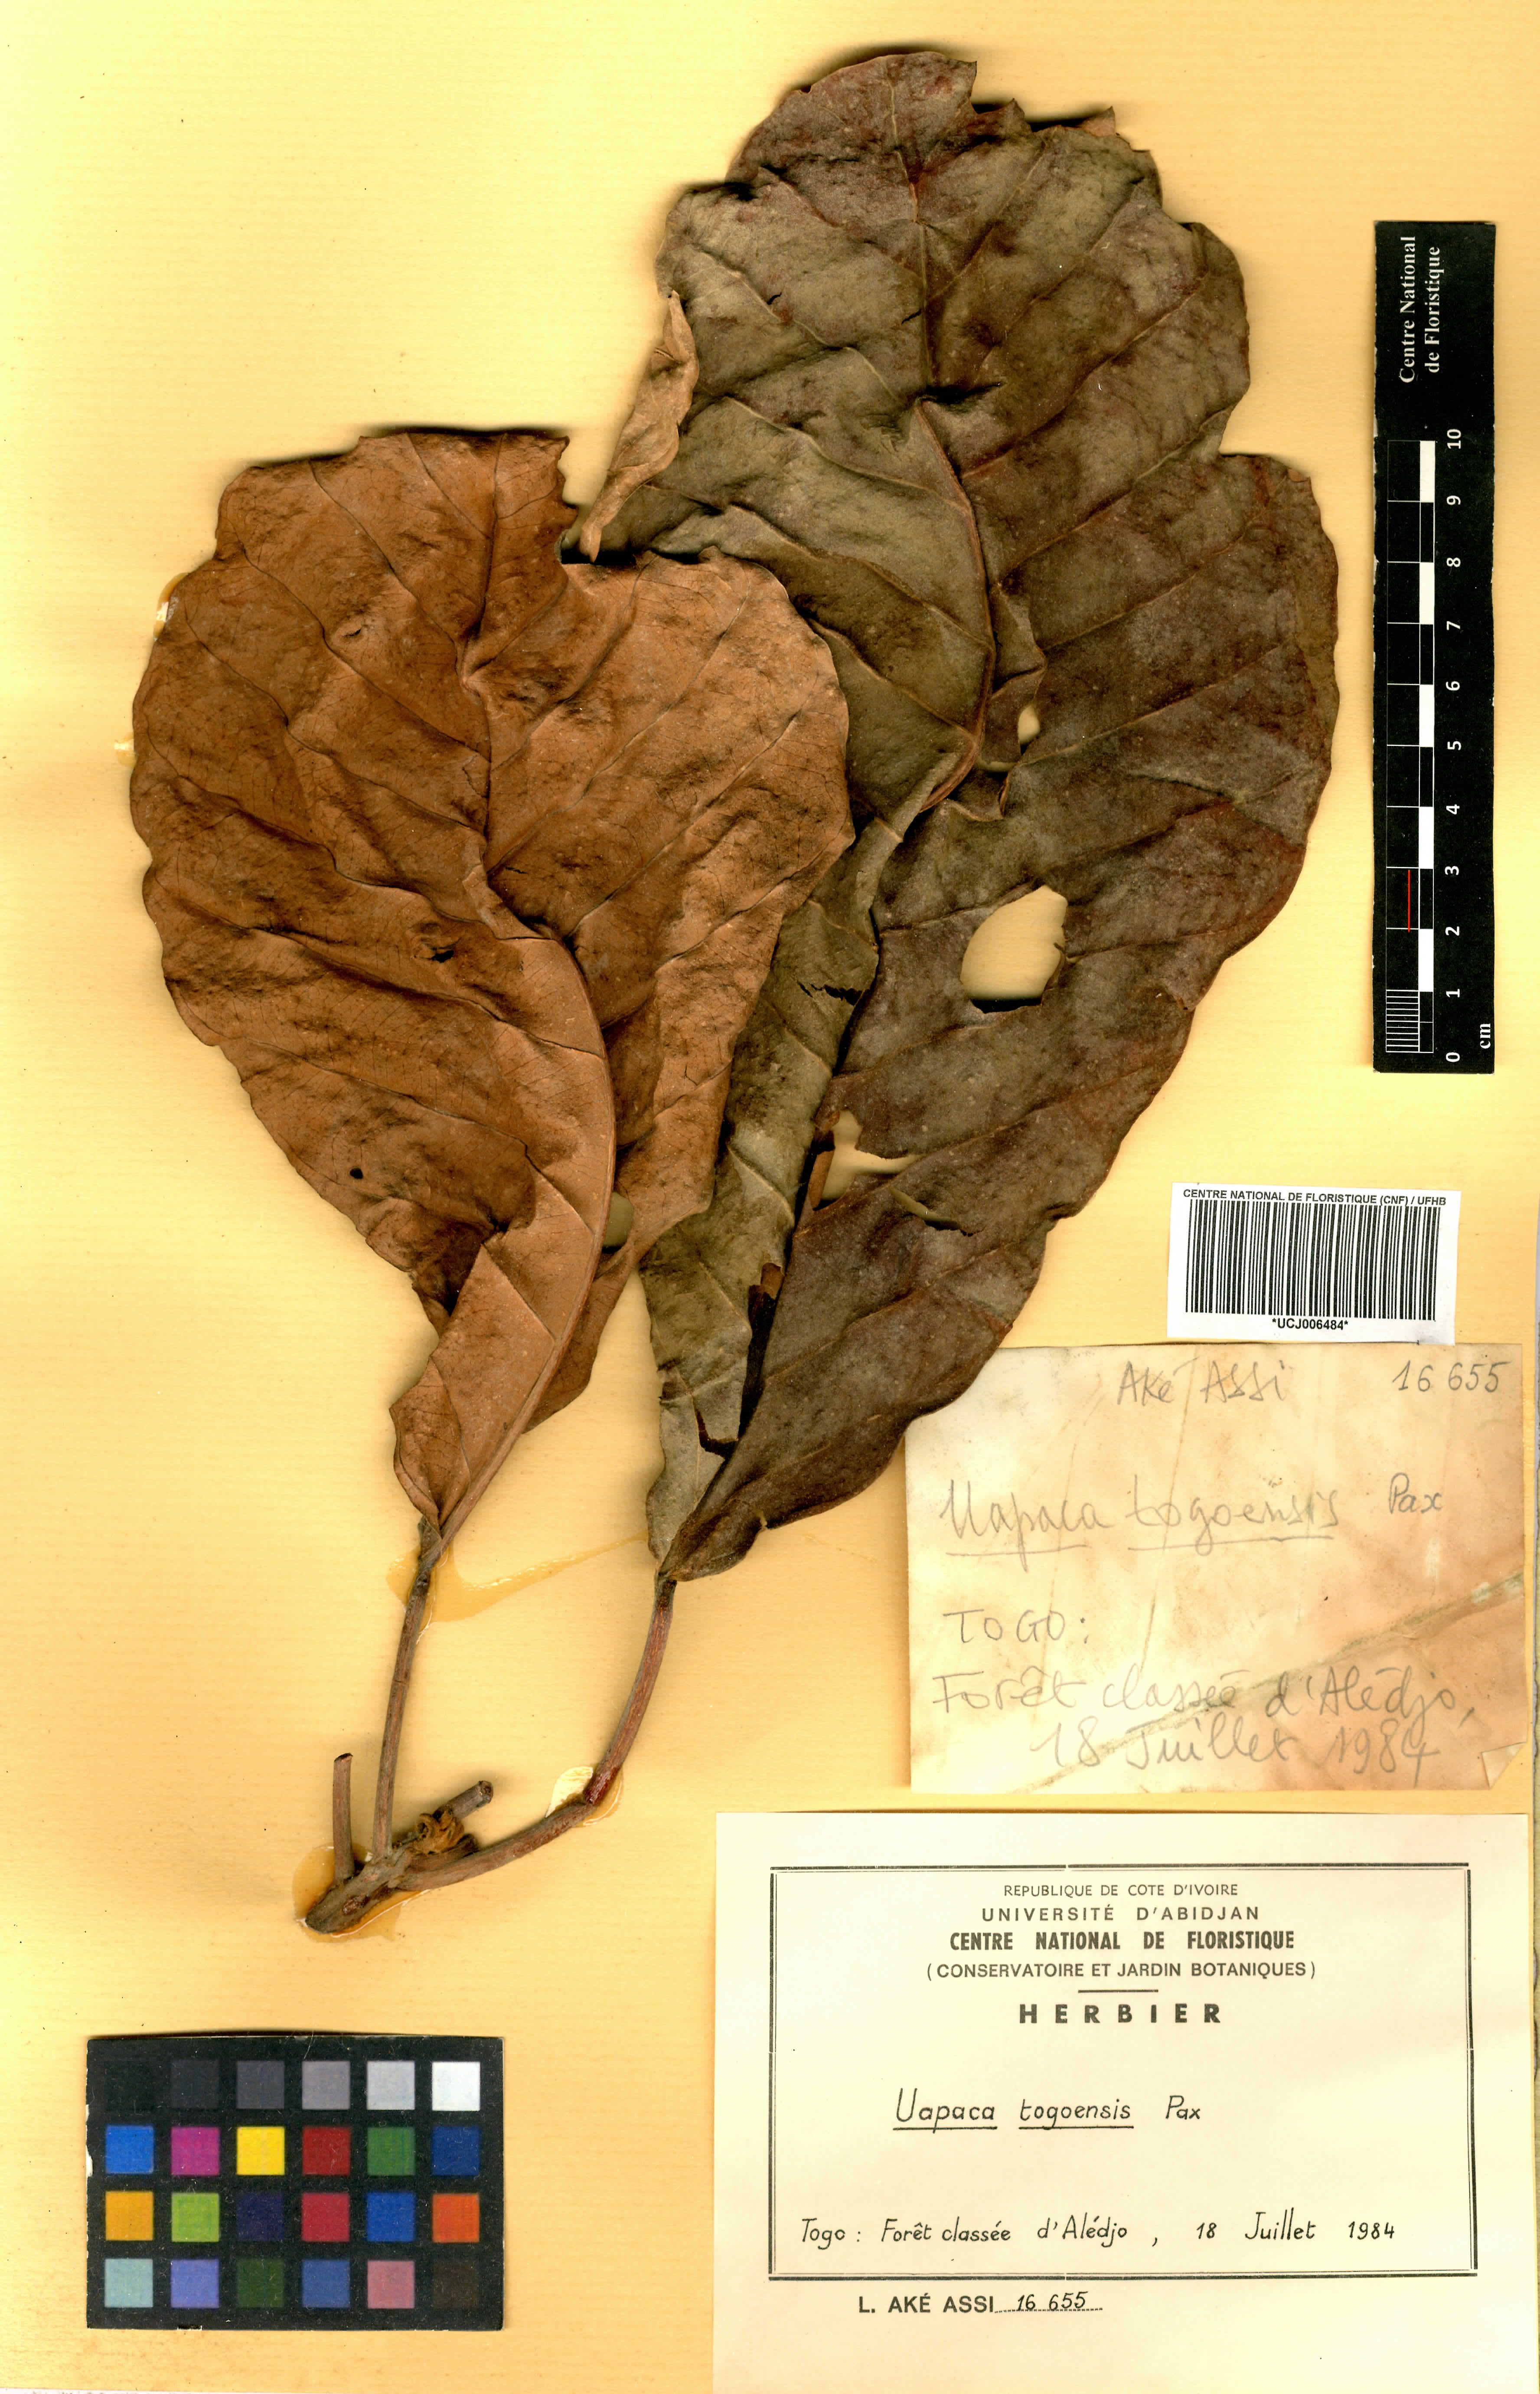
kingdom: Plantae
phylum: Tracheophyta
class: Magnoliopsida
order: Malpighiales
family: Phyllanthaceae
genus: Uapaca
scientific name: Uapaca togoensis
